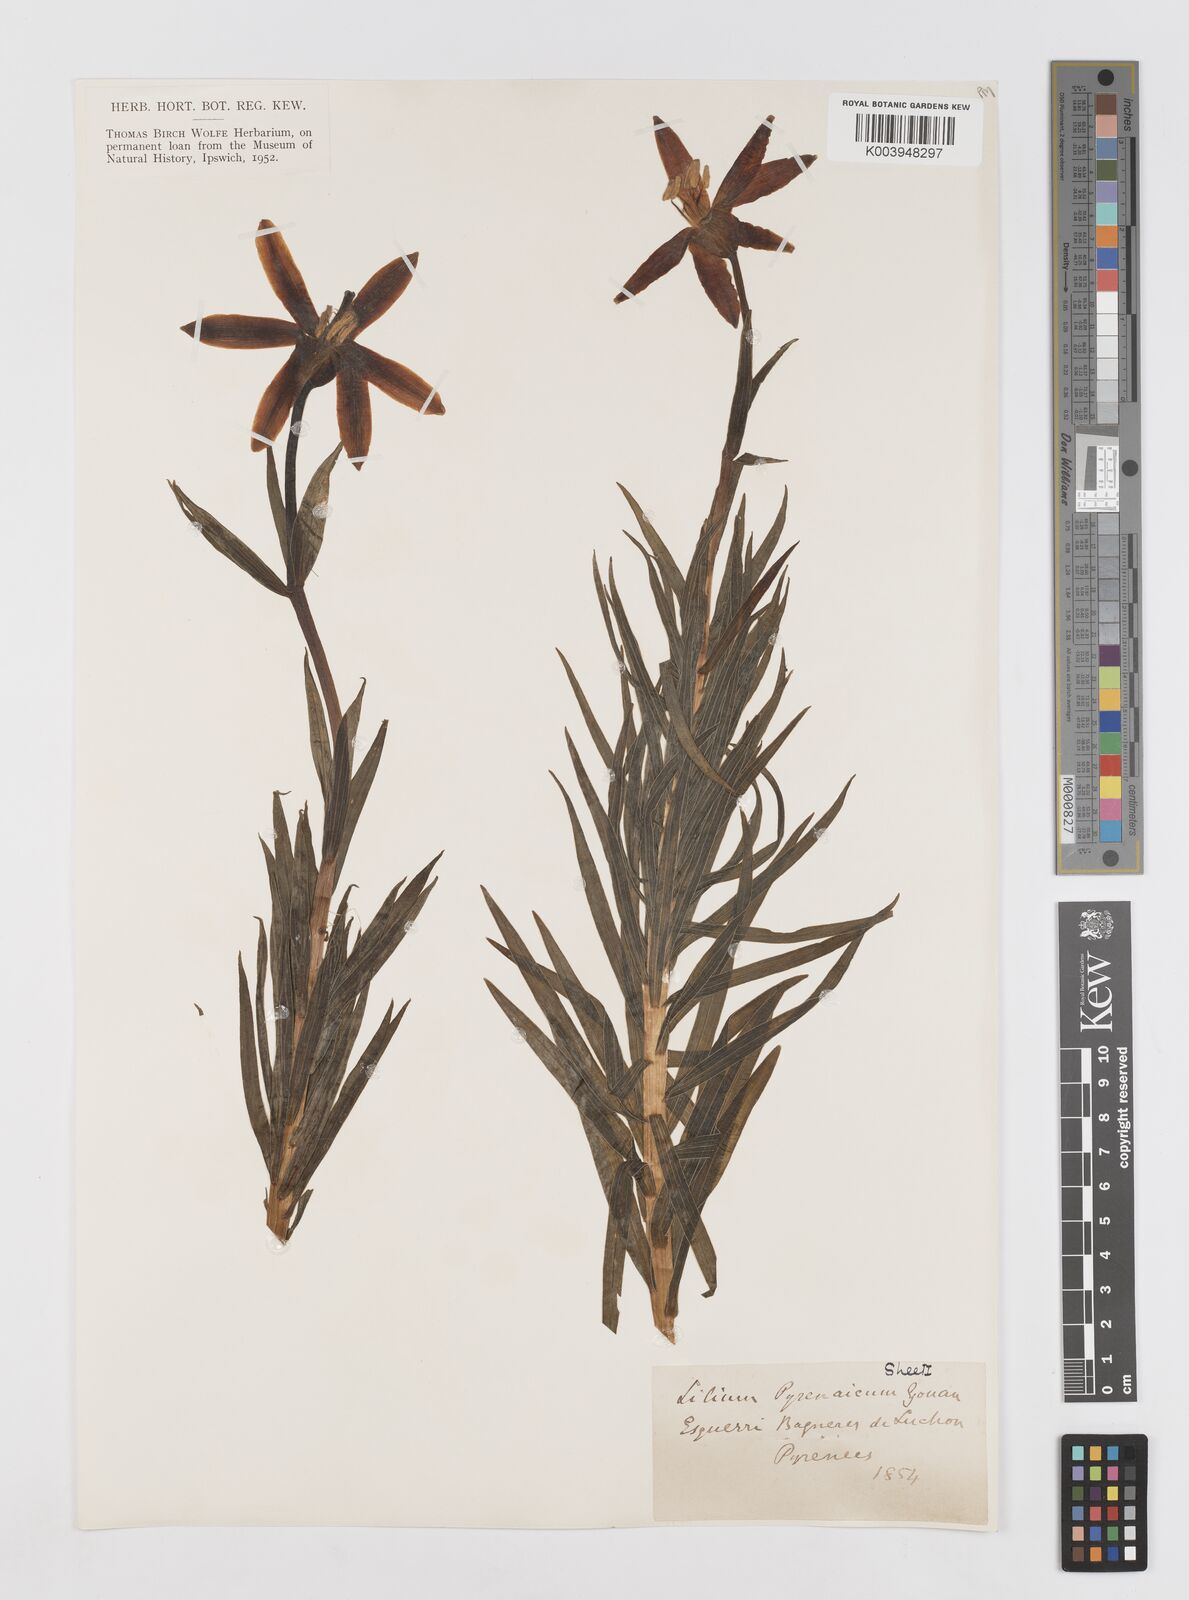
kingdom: Plantae
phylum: Tracheophyta
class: Liliopsida
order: Liliales
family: Liliaceae
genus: Lilium
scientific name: Lilium pyrenaicum
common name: Pyrenean lily
